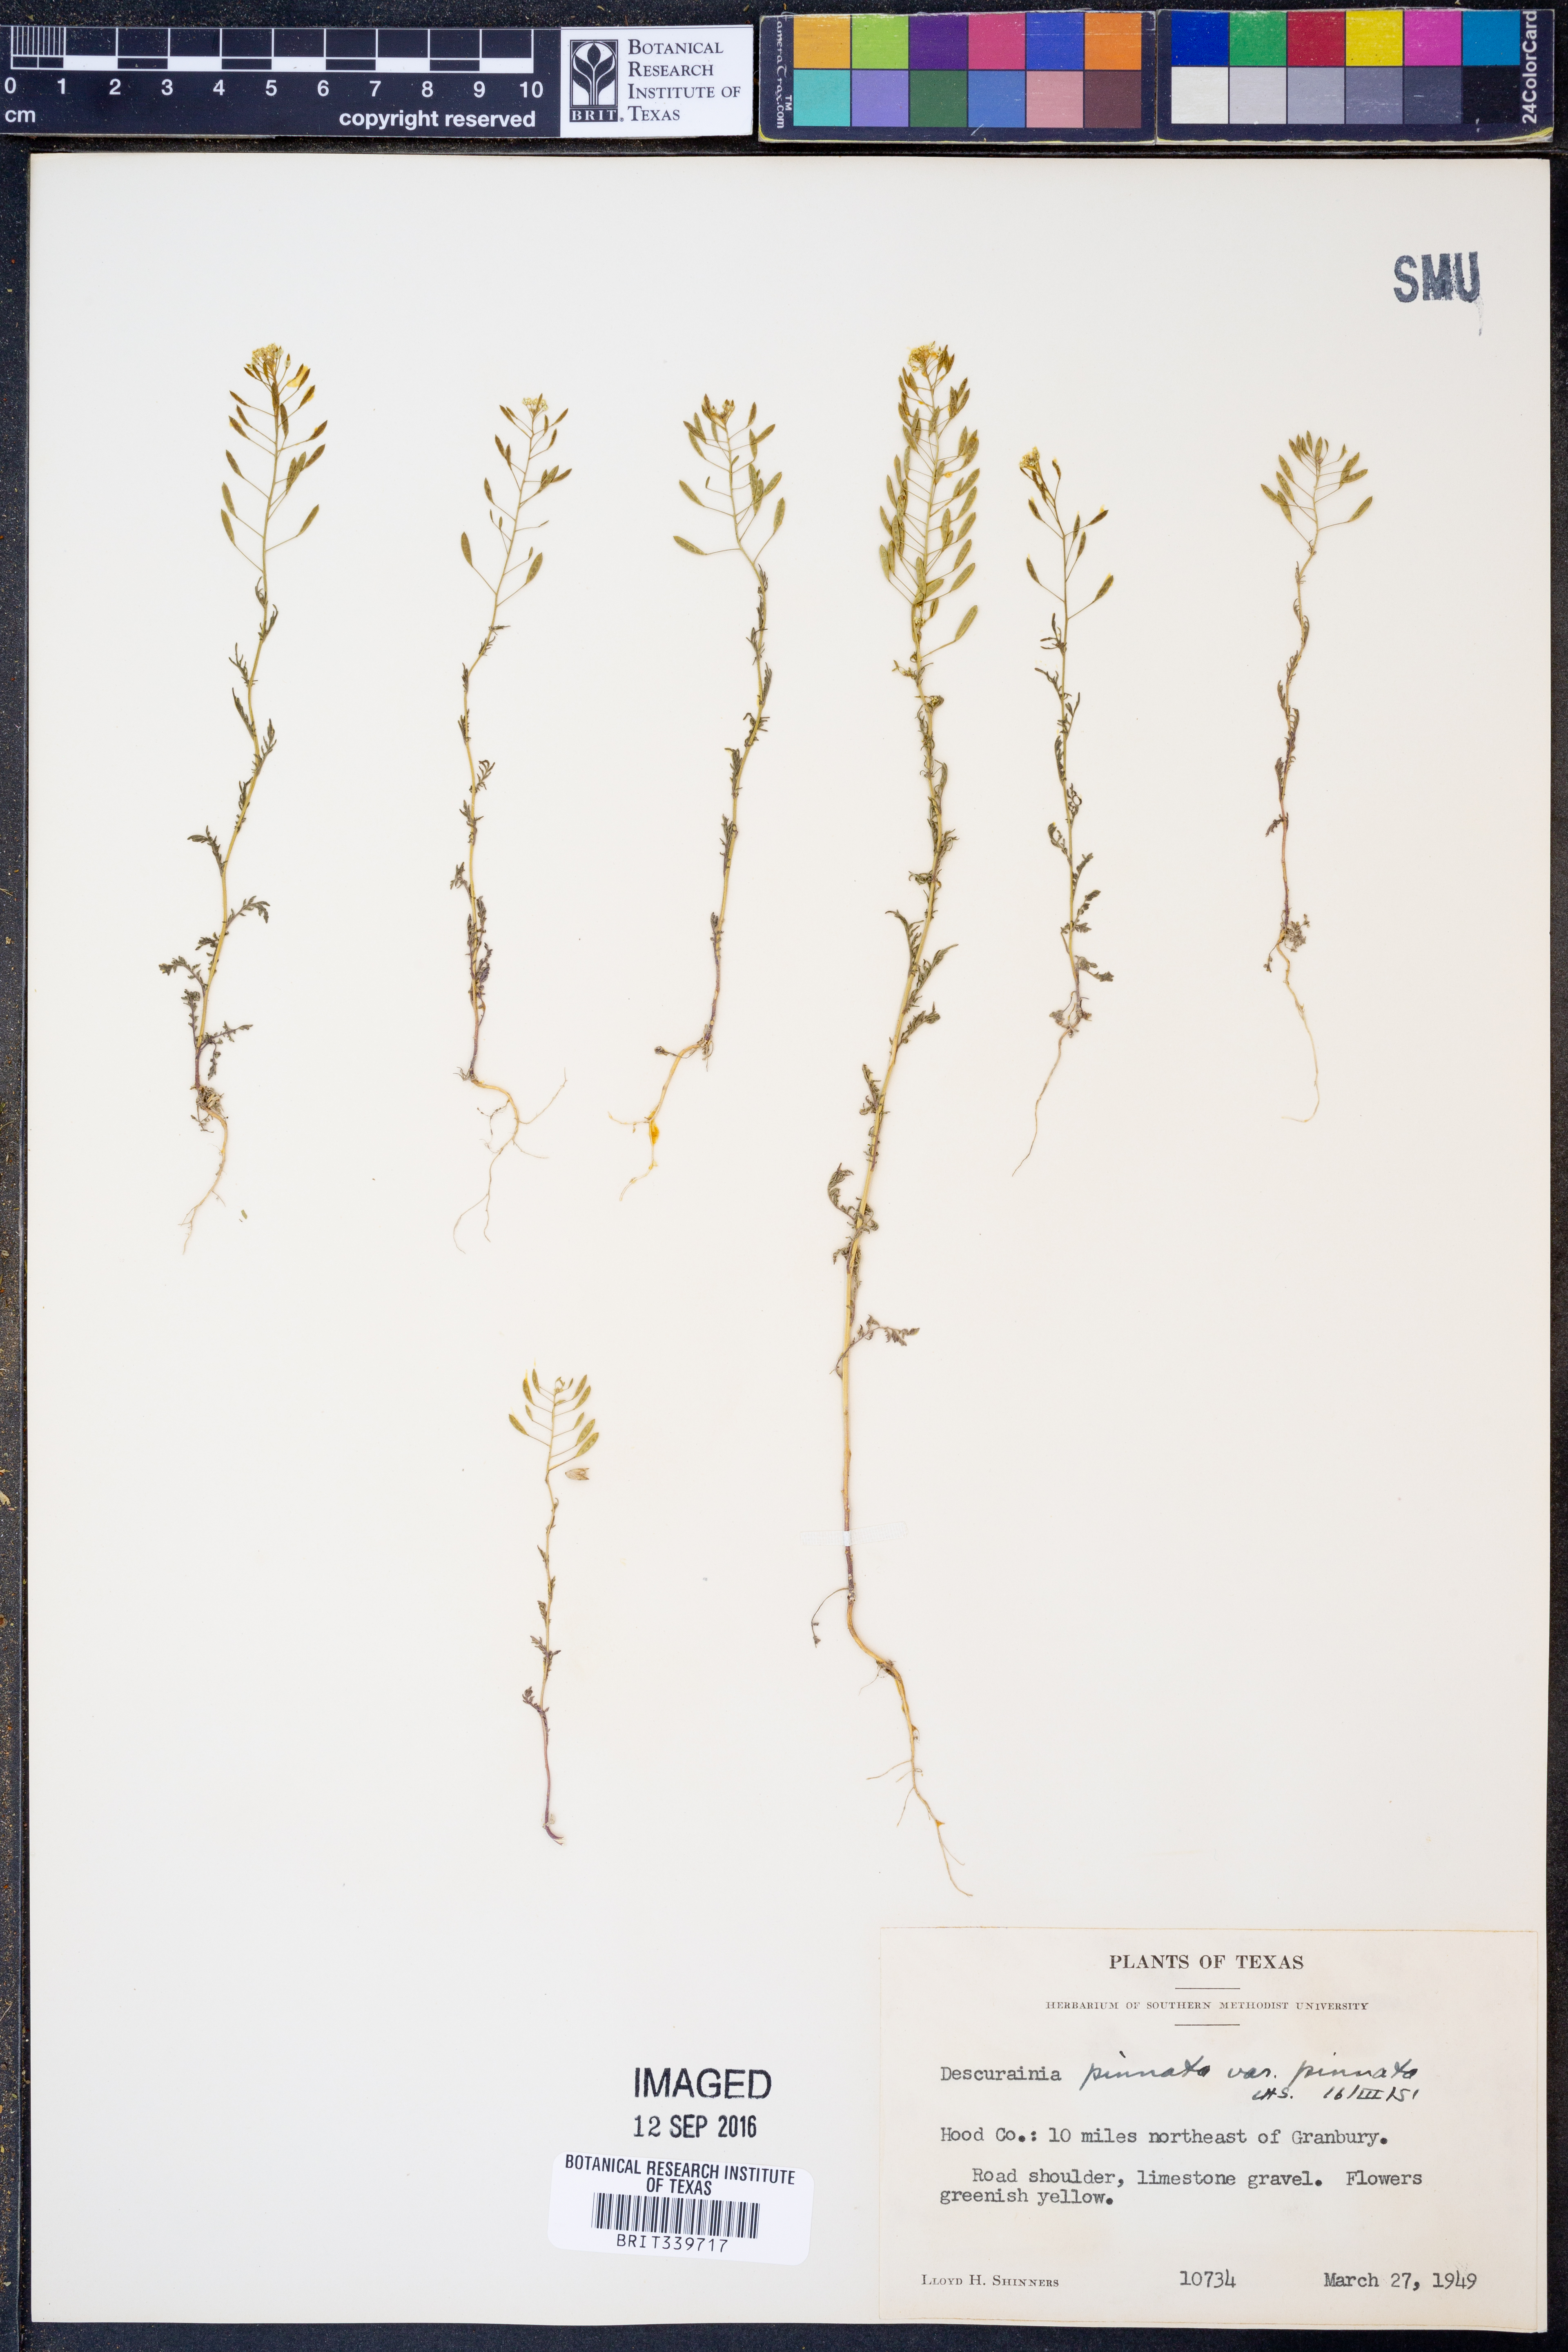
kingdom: Plantae
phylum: Tracheophyta
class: Magnoliopsida
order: Brassicales
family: Brassicaceae
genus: Descurainia
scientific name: Descurainia pinnata
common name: Western tansy mustard
